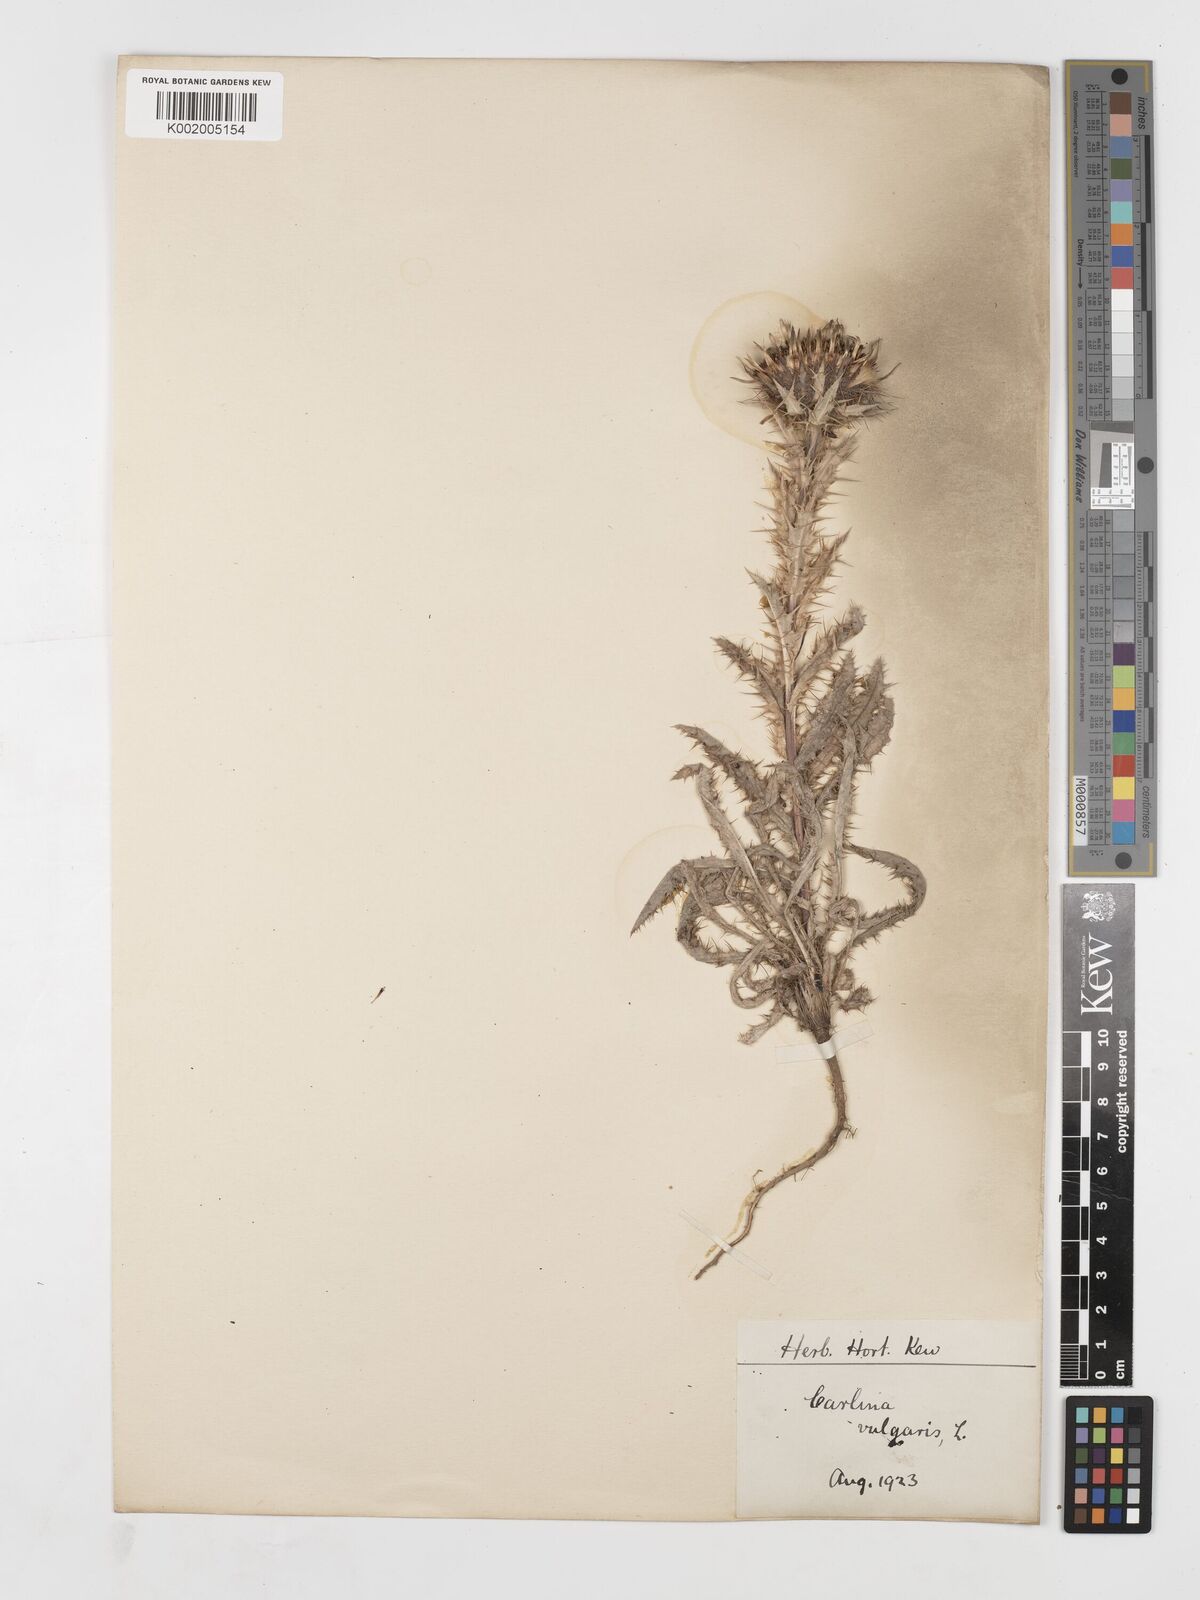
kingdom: Plantae
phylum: Tracheophyta
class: Magnoliopsida
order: Asterales
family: Asteraceae
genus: Carlina
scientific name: Carlina vulgaris
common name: Carline thistle
